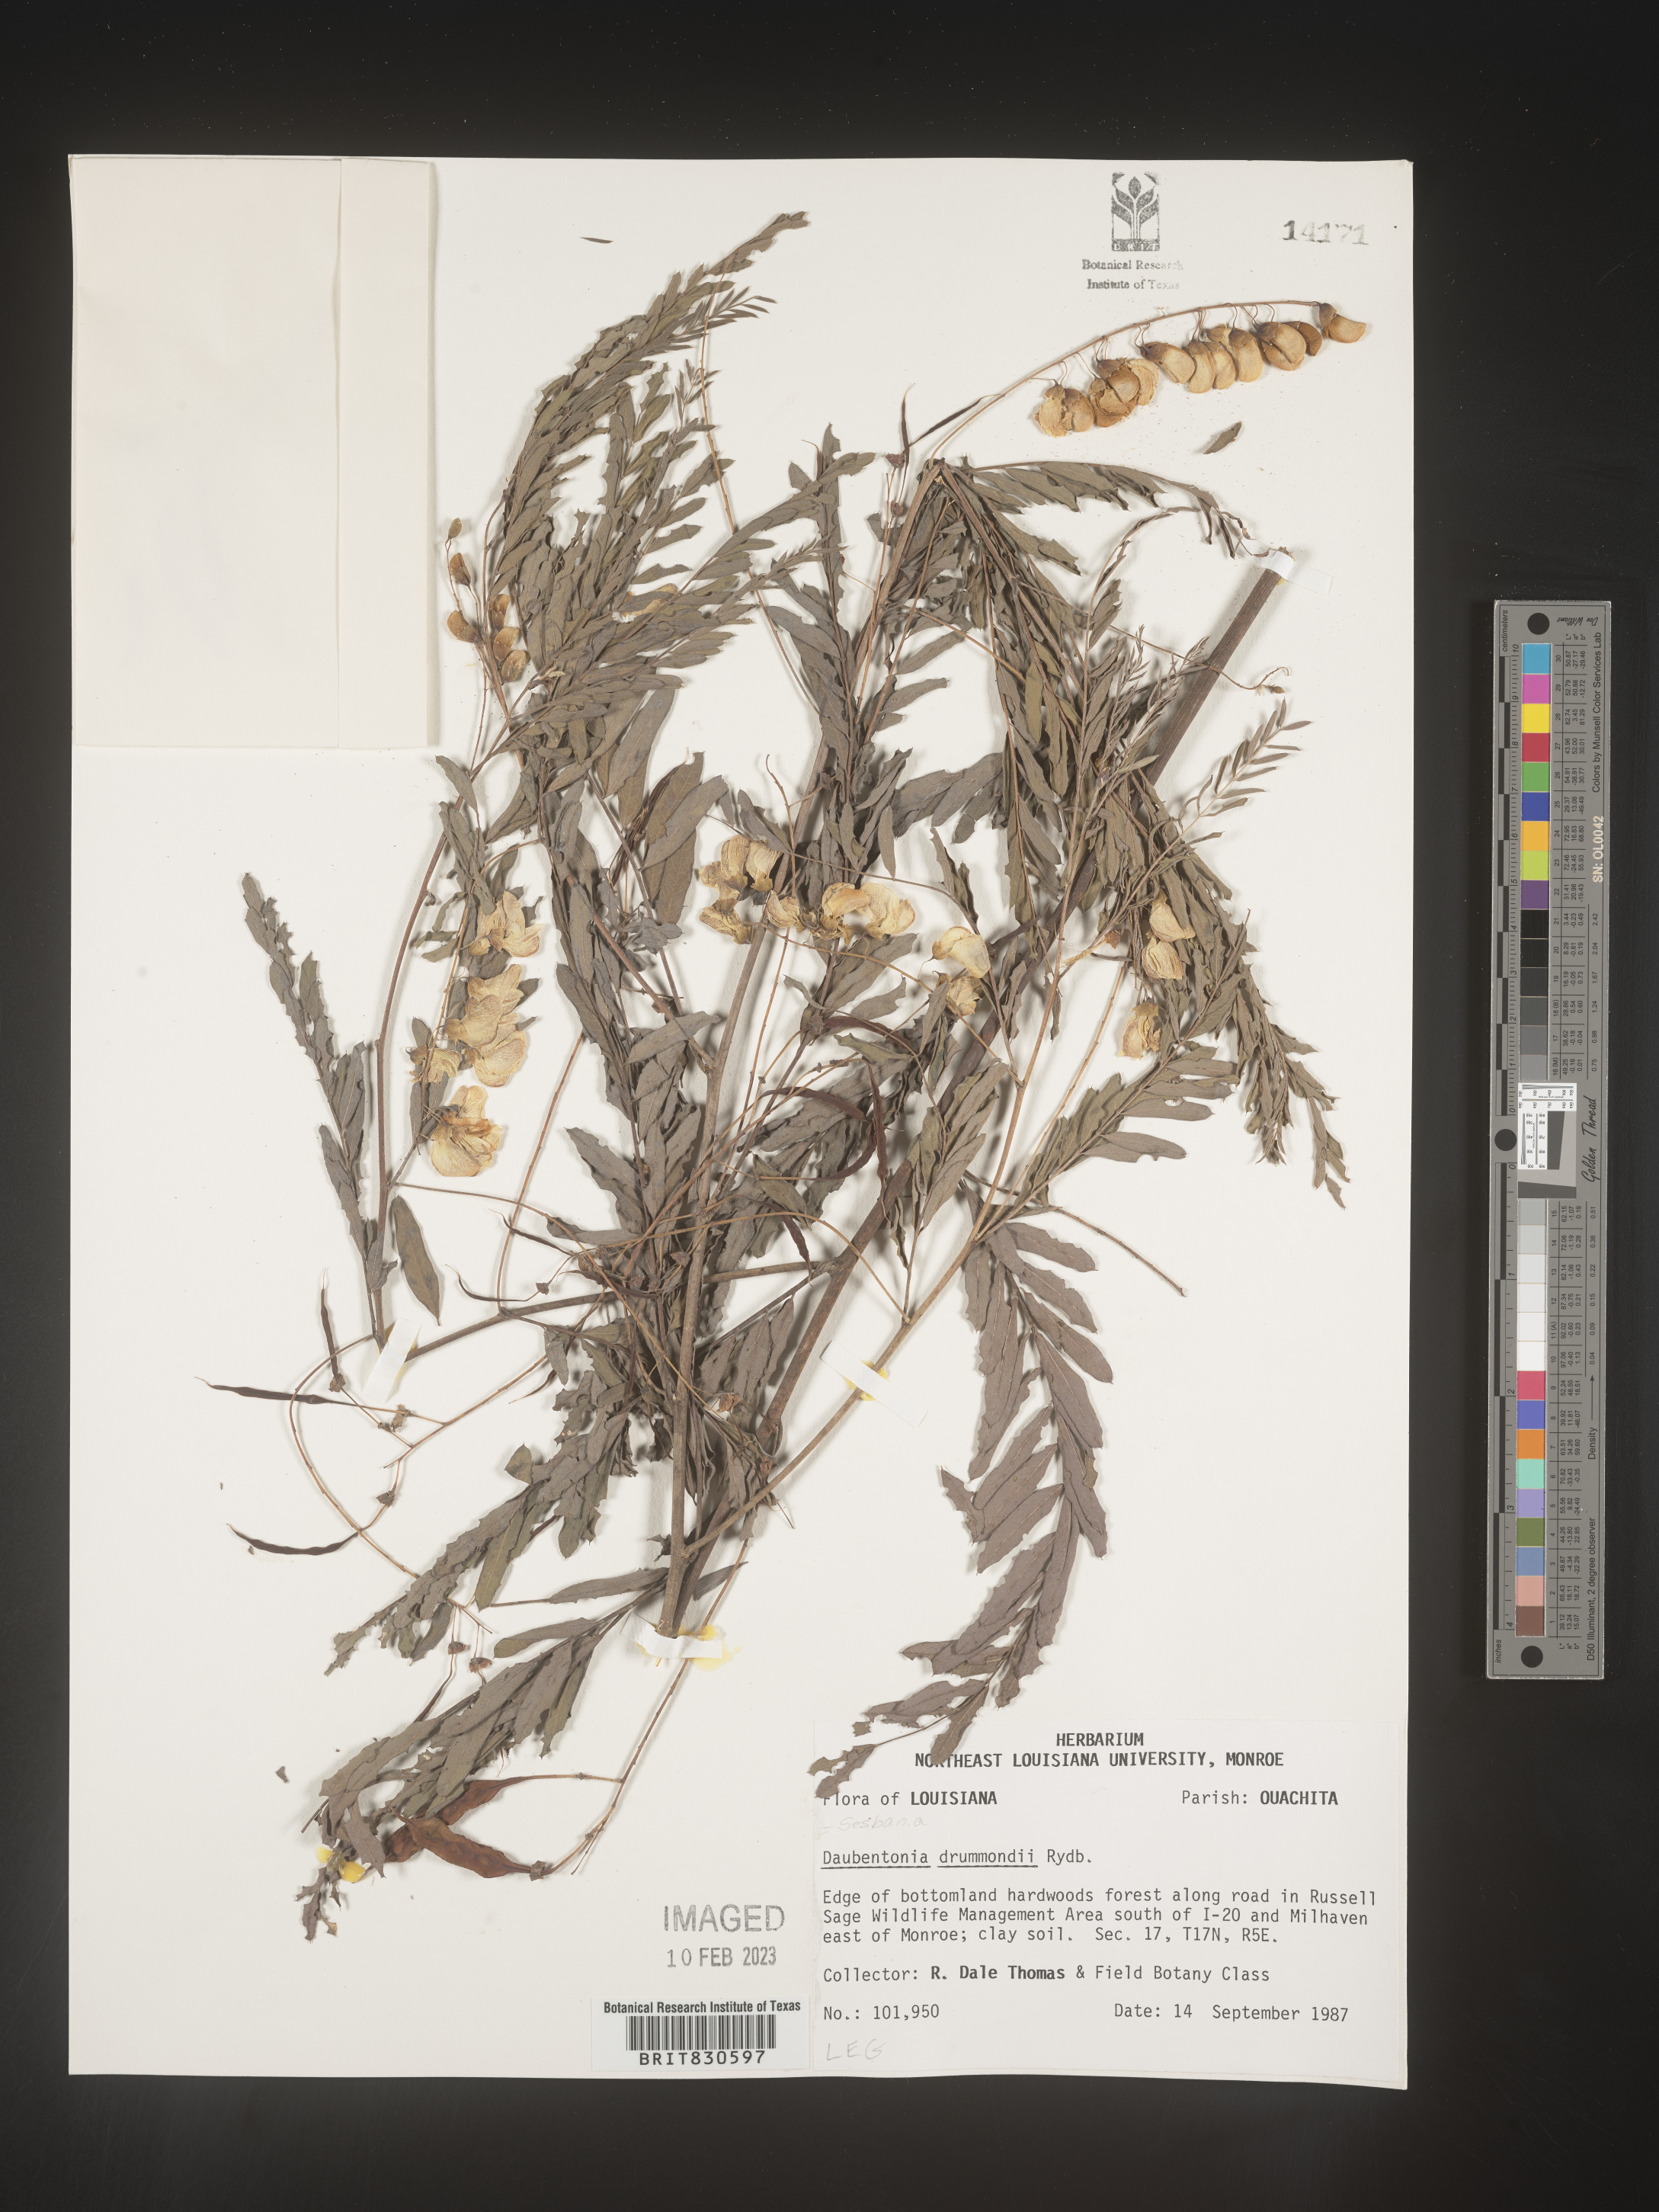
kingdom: Plantae
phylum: Tracheophyta
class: Magnoliopsida
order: Fabales
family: Fabaceae
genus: Sesbania
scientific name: Sesbania drummondii
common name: Poison-bean
